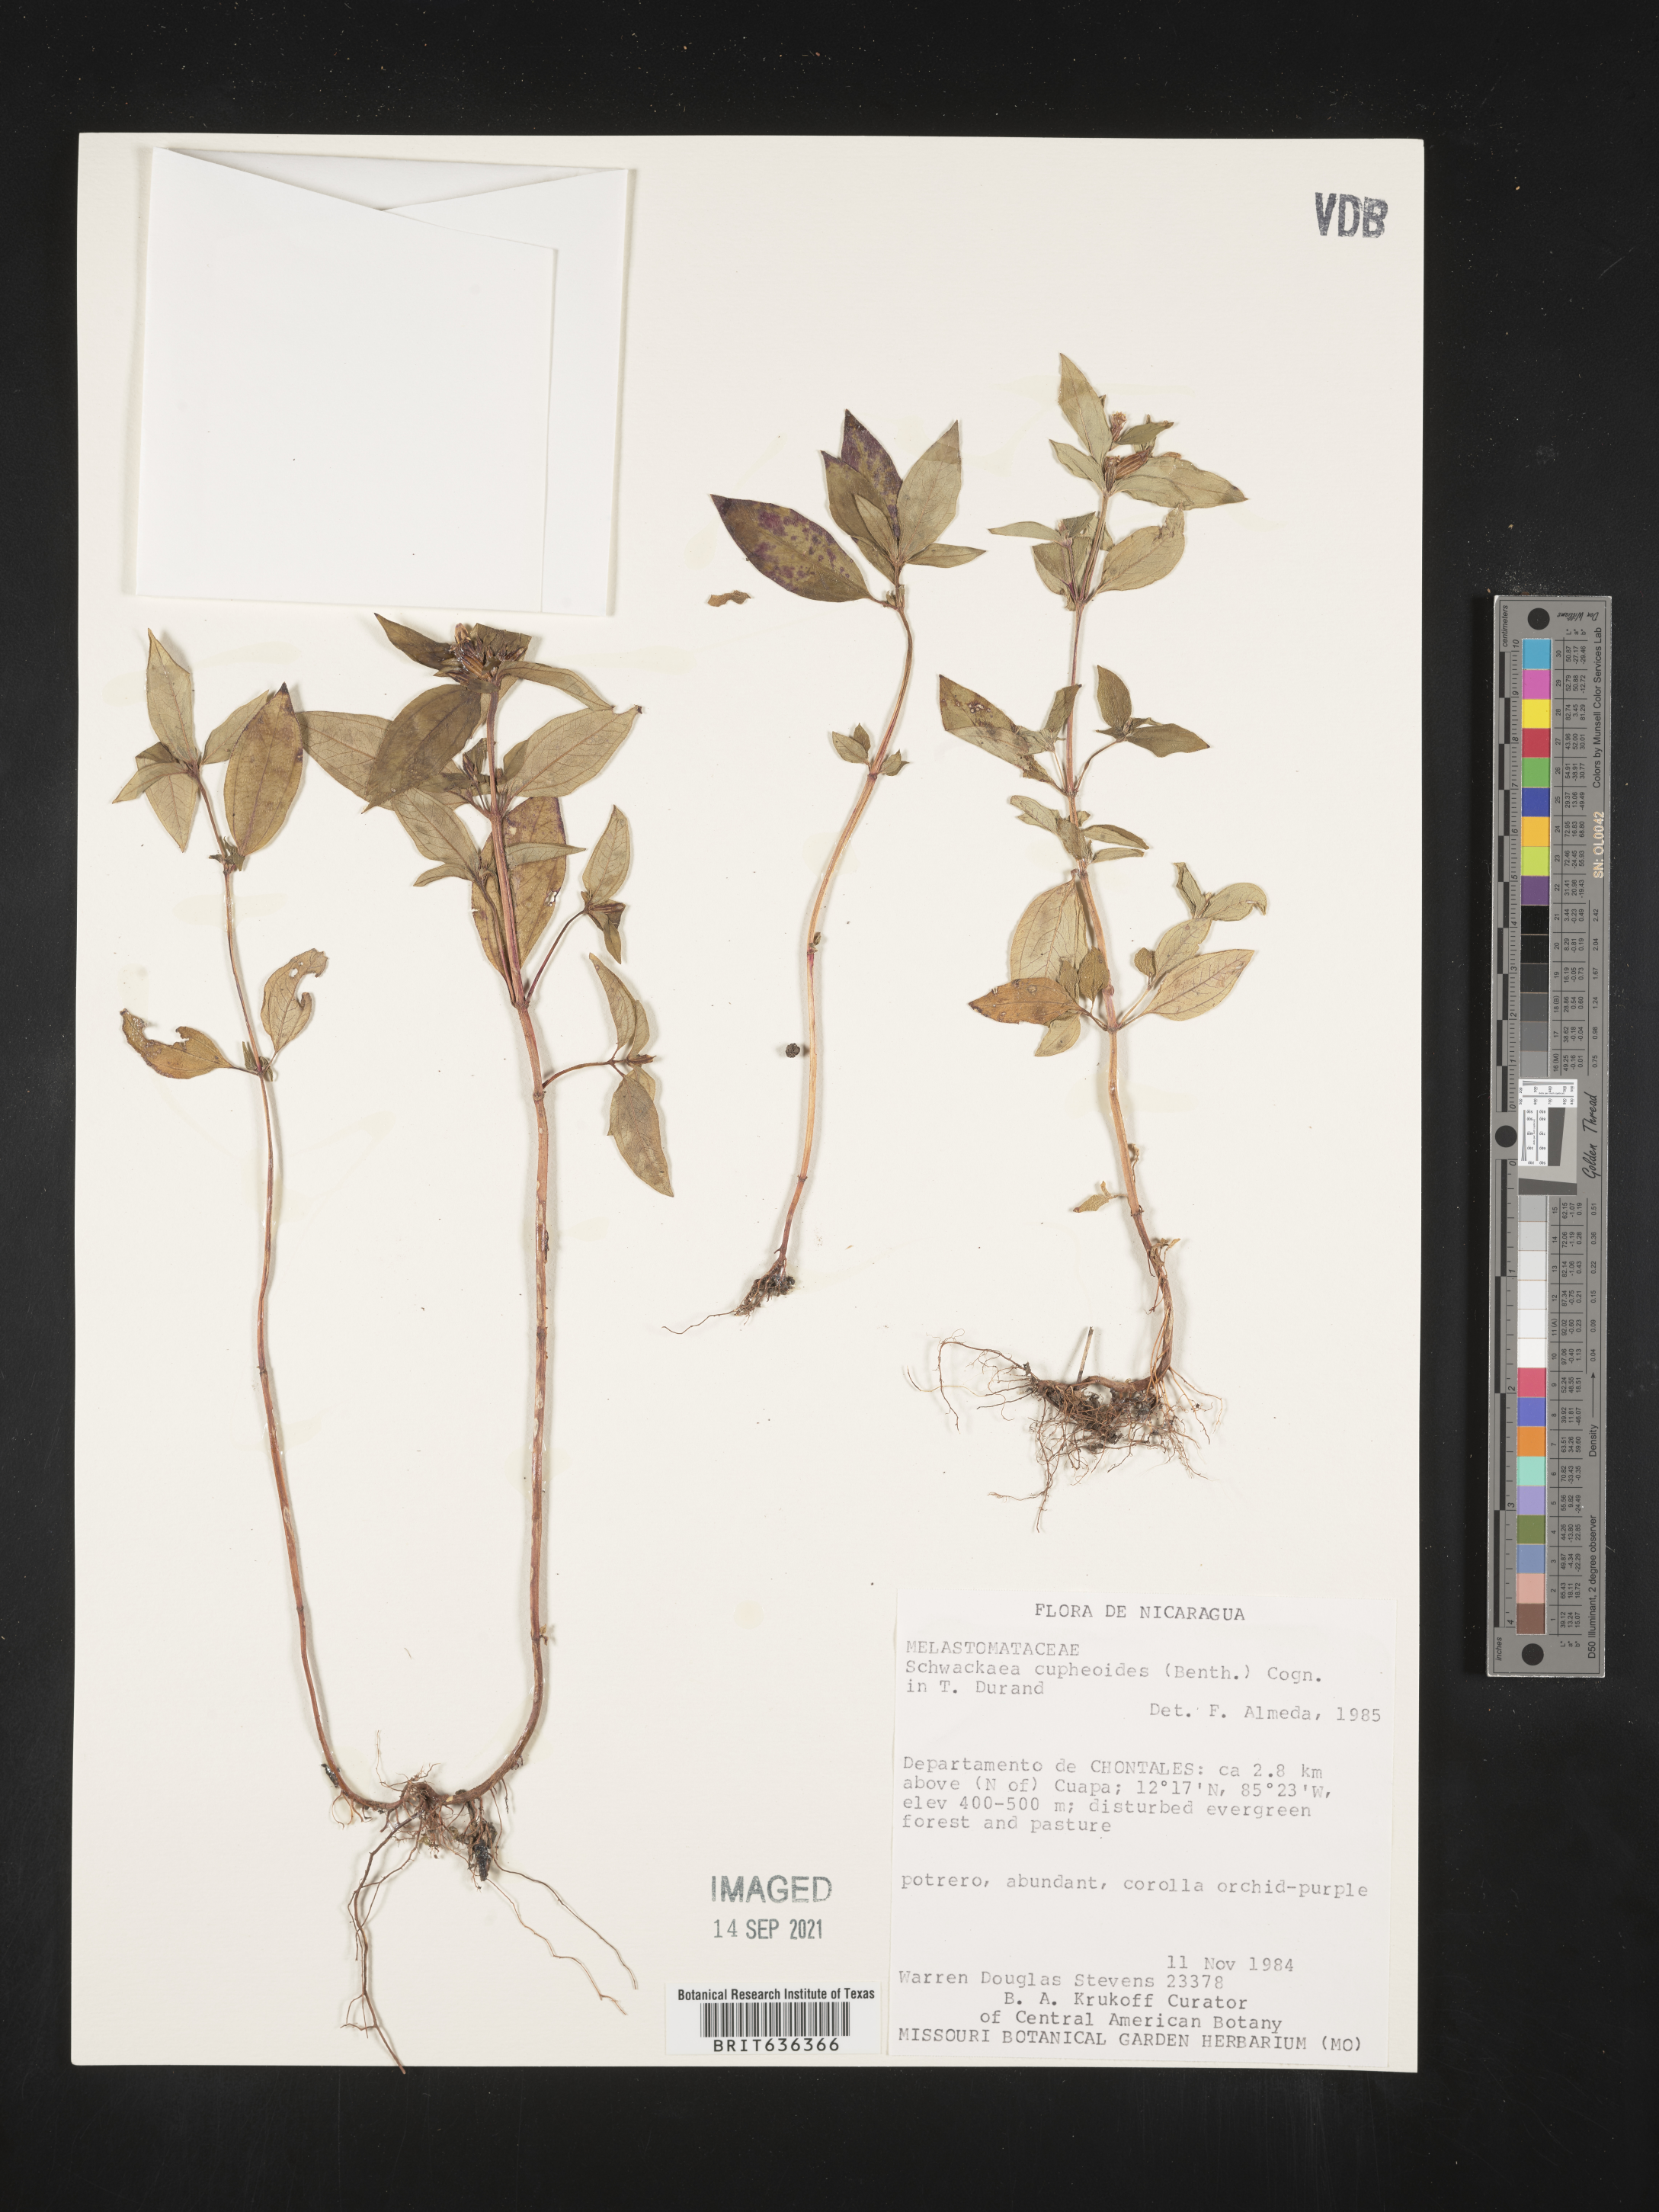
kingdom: Plantae
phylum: Tracheophyta
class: Magnoliopsida
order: Myrtales
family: Melastomataceae
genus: Schwackaea
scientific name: Schwackaea
